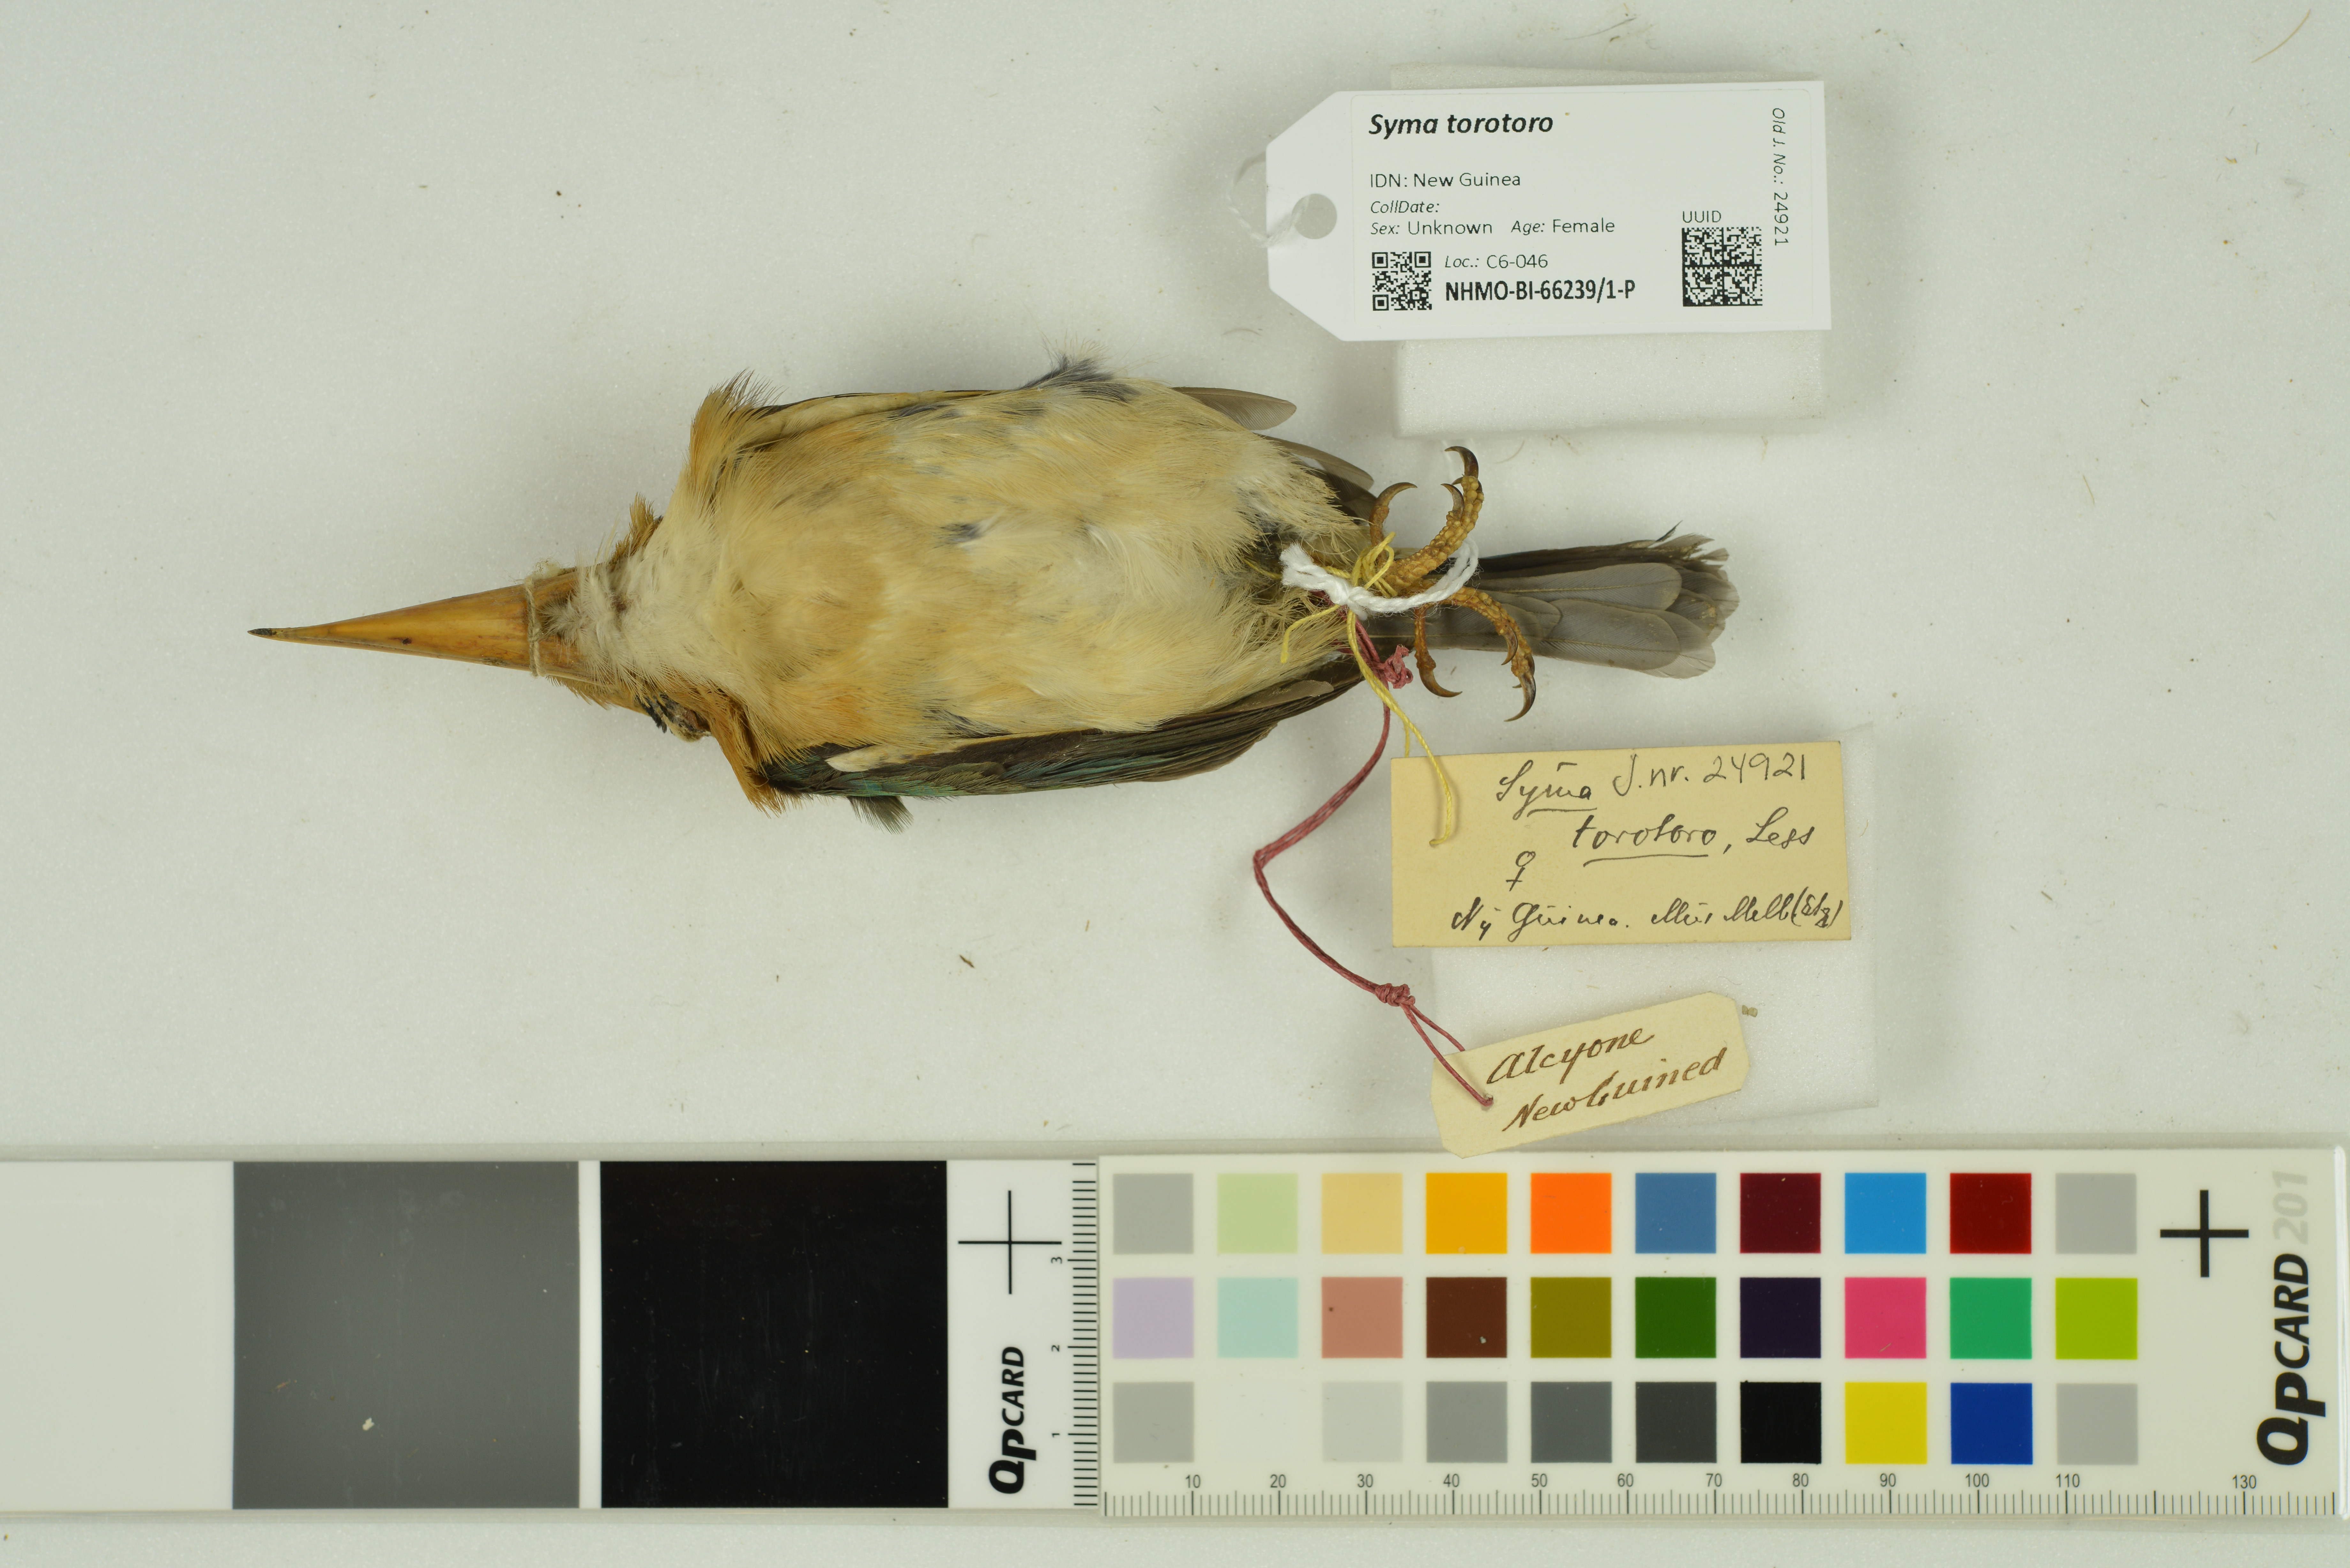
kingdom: Animalia
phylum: Chordata
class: Aves
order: Coraciiformes
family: Alcedinidae
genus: Syma
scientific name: Syma torotoro
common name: Yellow-billed kingfisher
